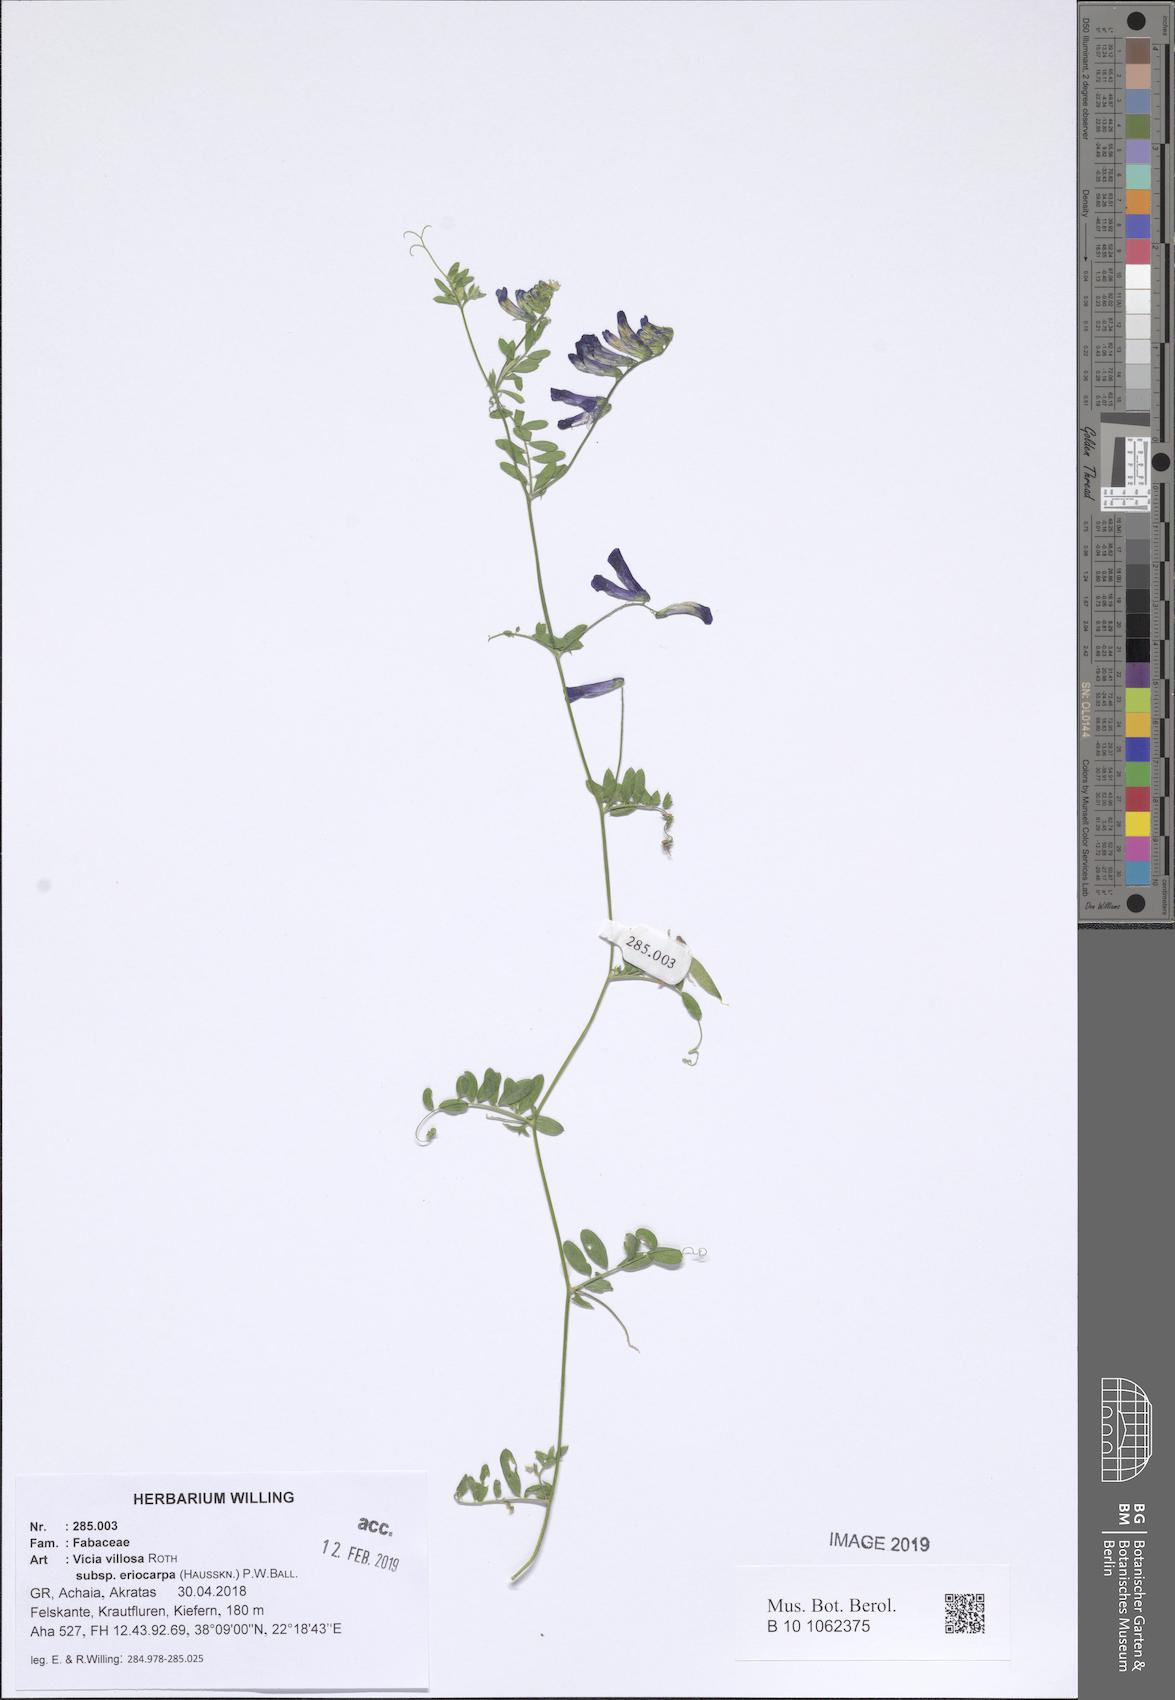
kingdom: Plantae
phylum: Tracheophyta
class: Magnoliopsida
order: Fabales
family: Fabaceae
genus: Vicia
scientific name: Vicia eriocarpa
